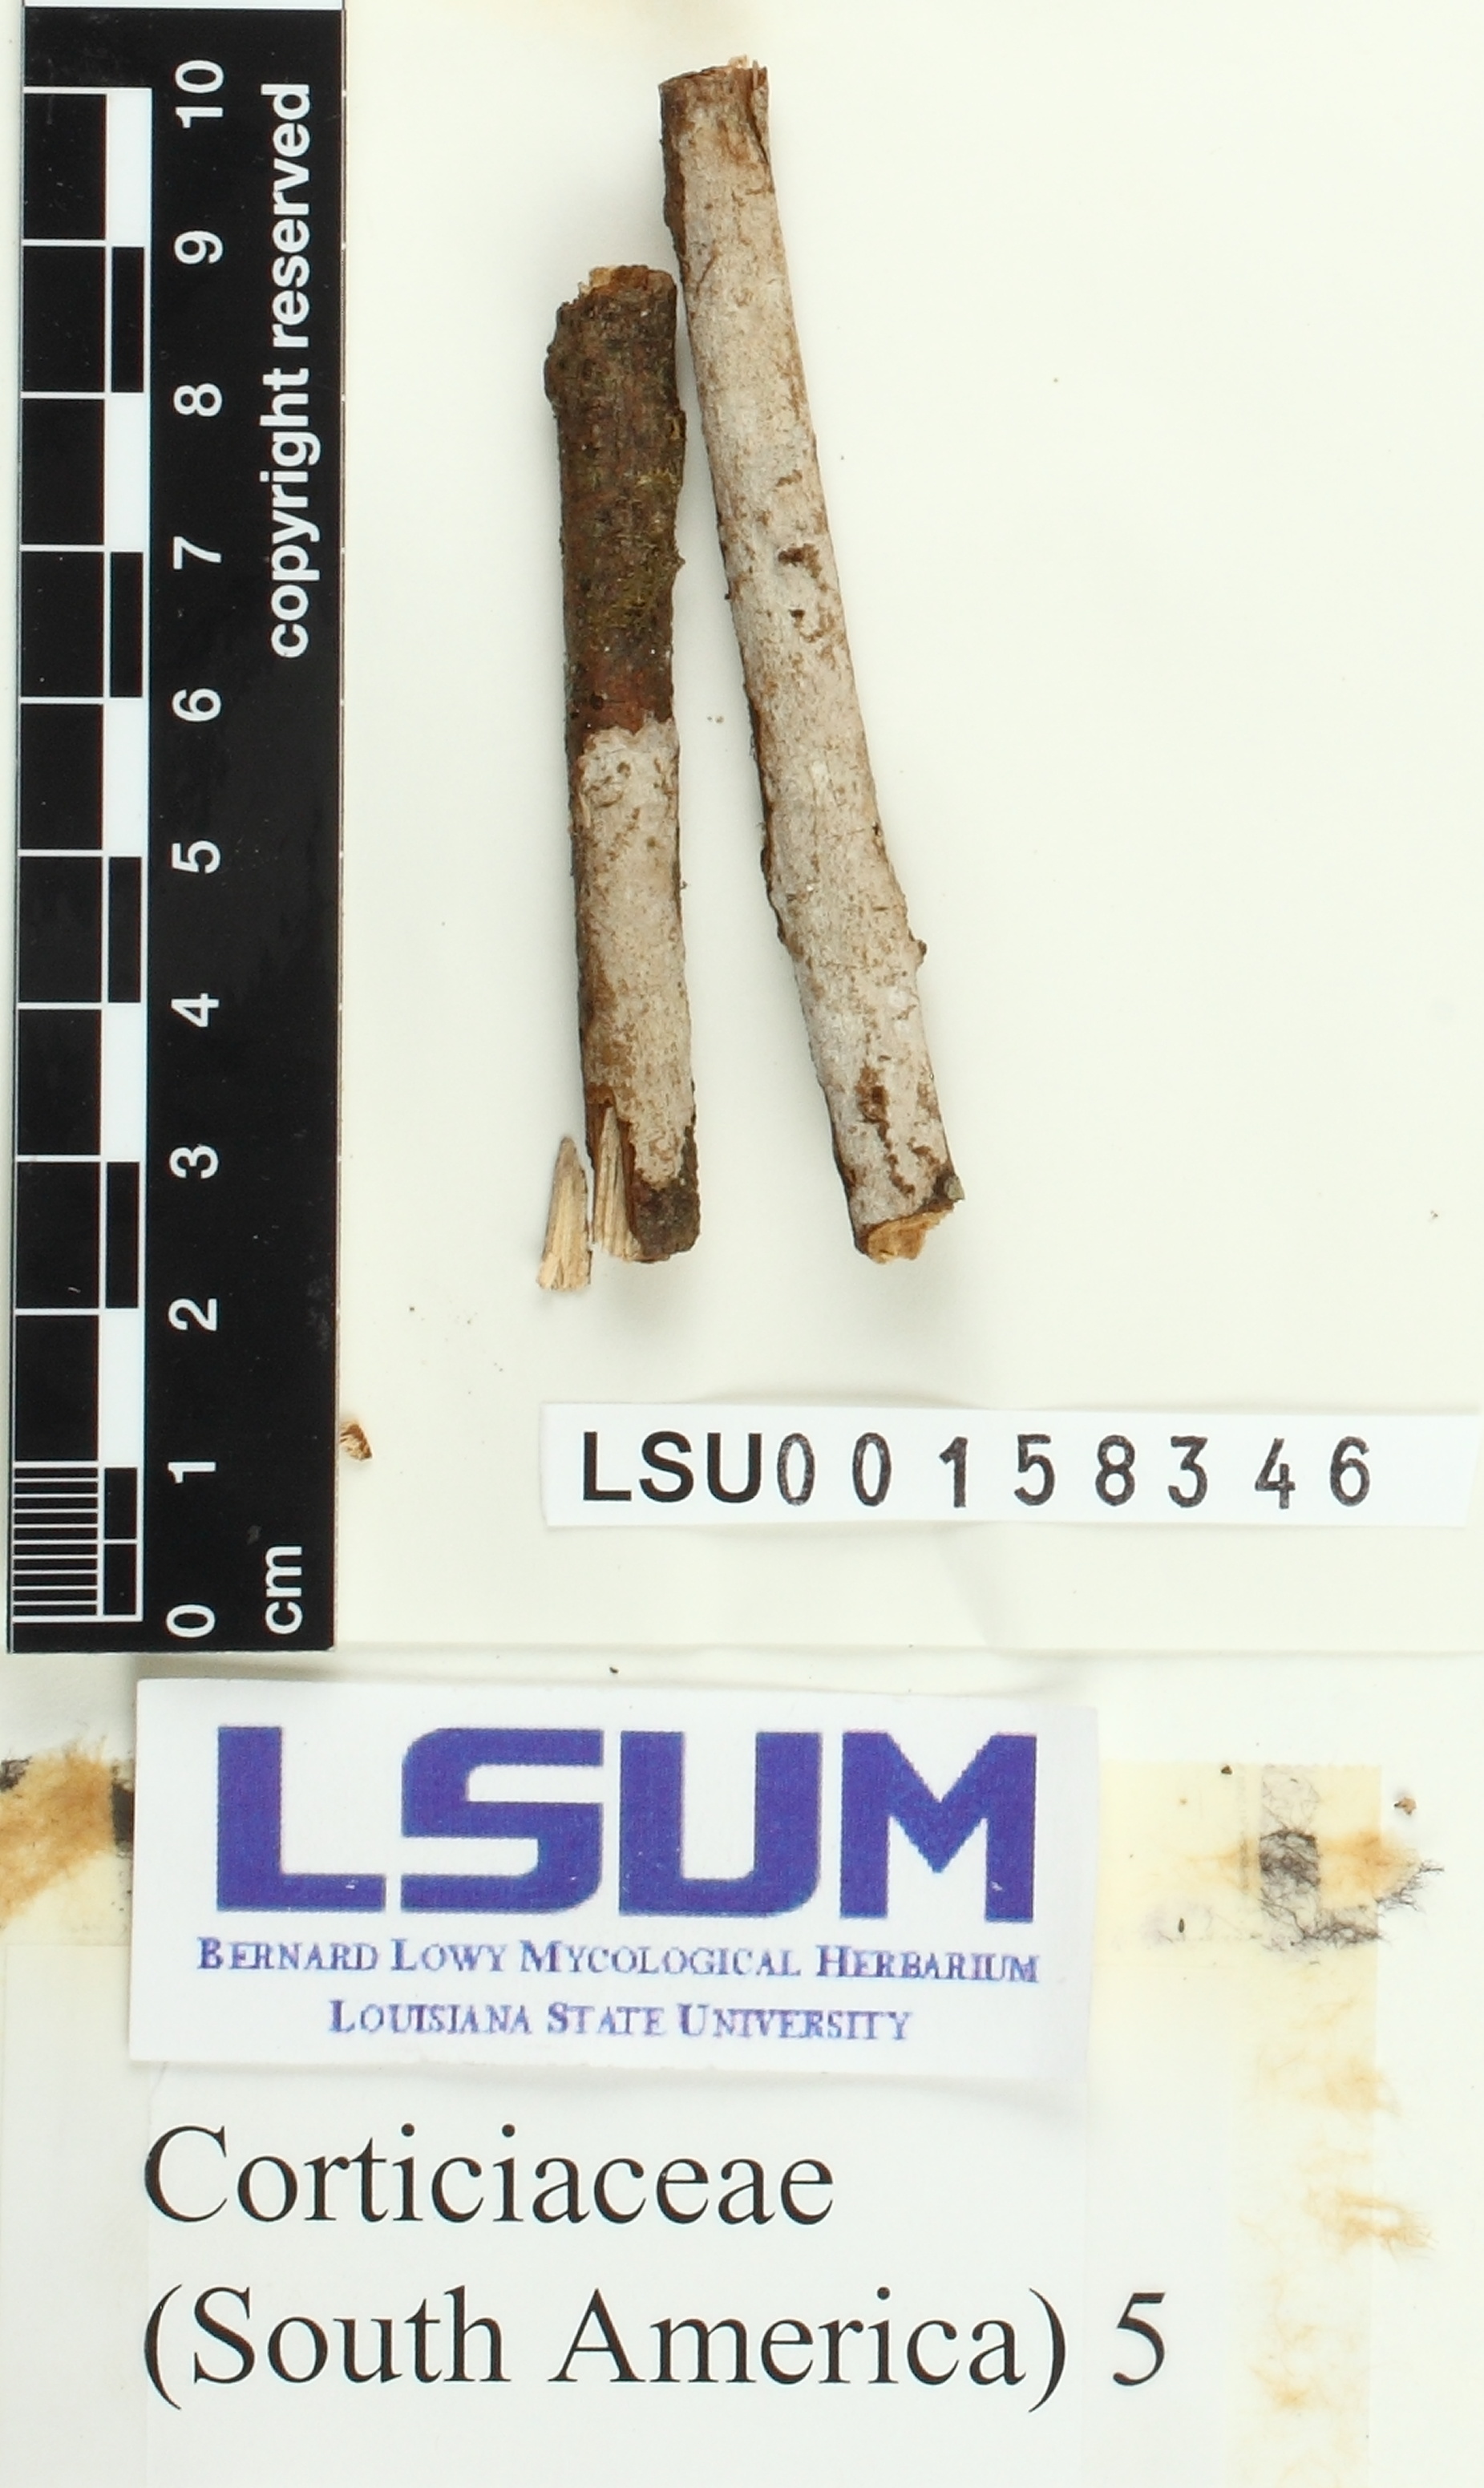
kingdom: Fungi
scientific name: Fungi
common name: Fungi
